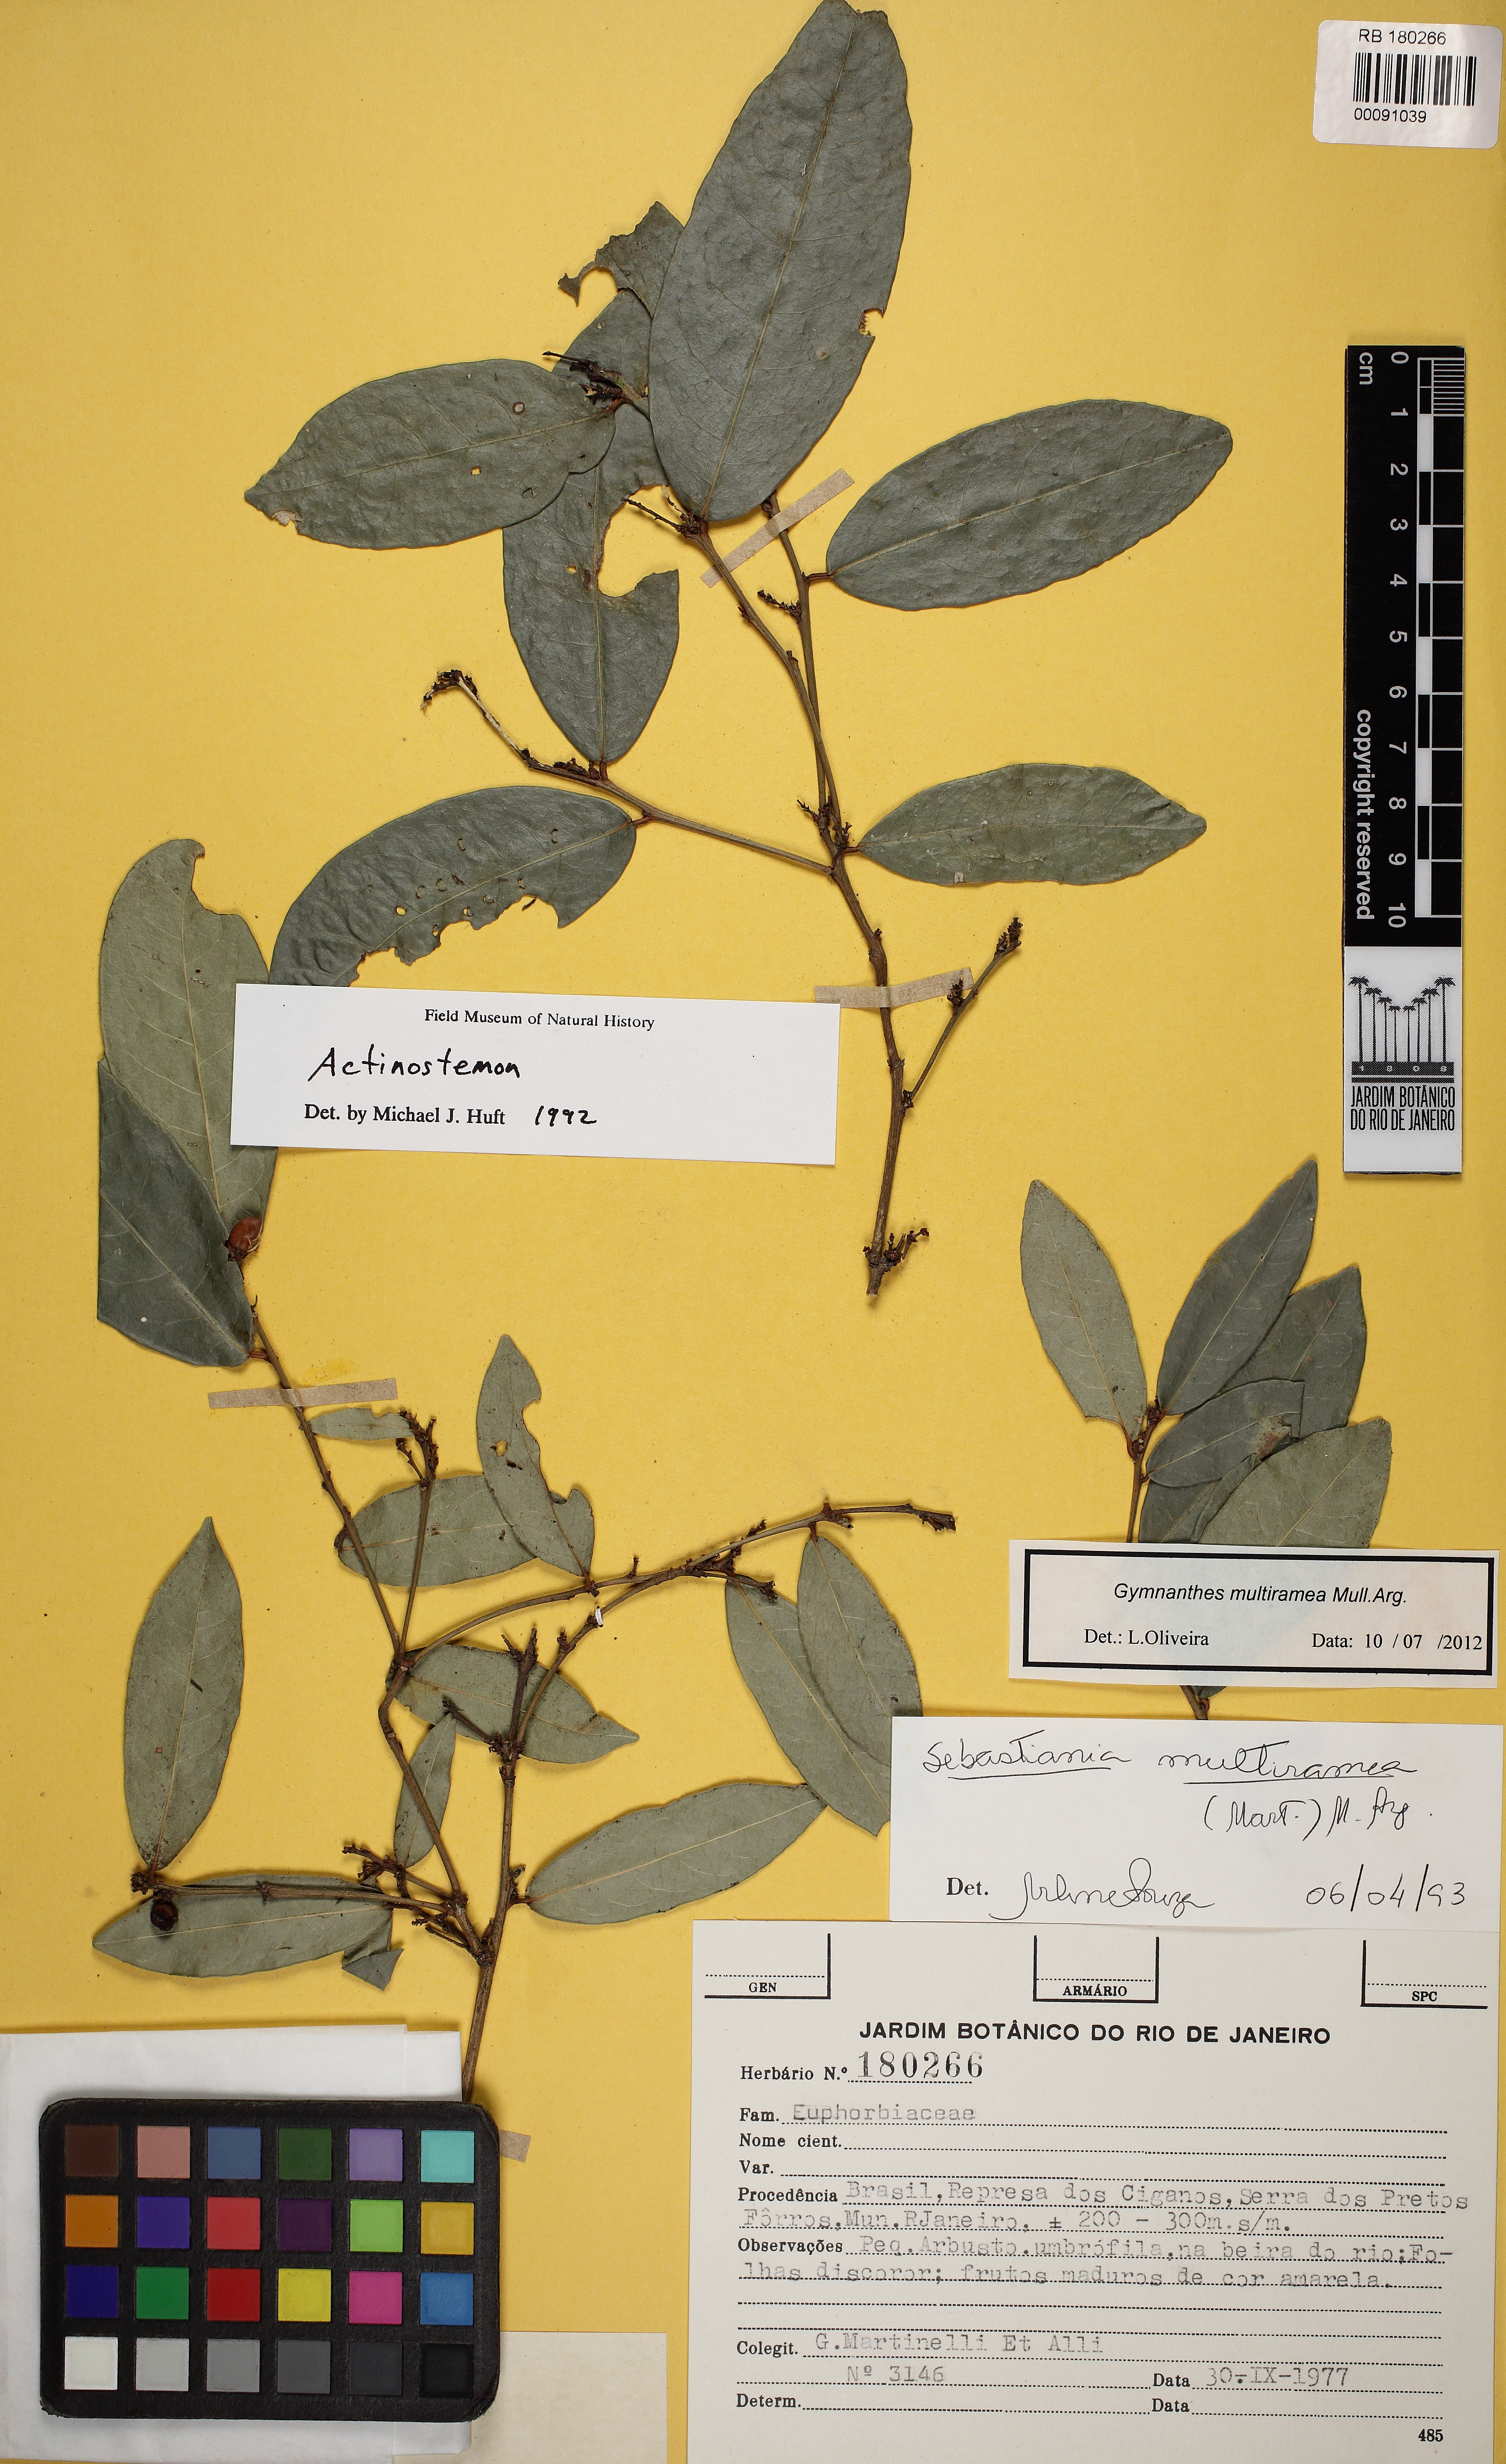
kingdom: Plantae
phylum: Tracheophyta
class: Magnoliopsida
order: Malpighiales
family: Euphorbiaceae
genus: Gymnanthes
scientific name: Gymnanthes glabrata
